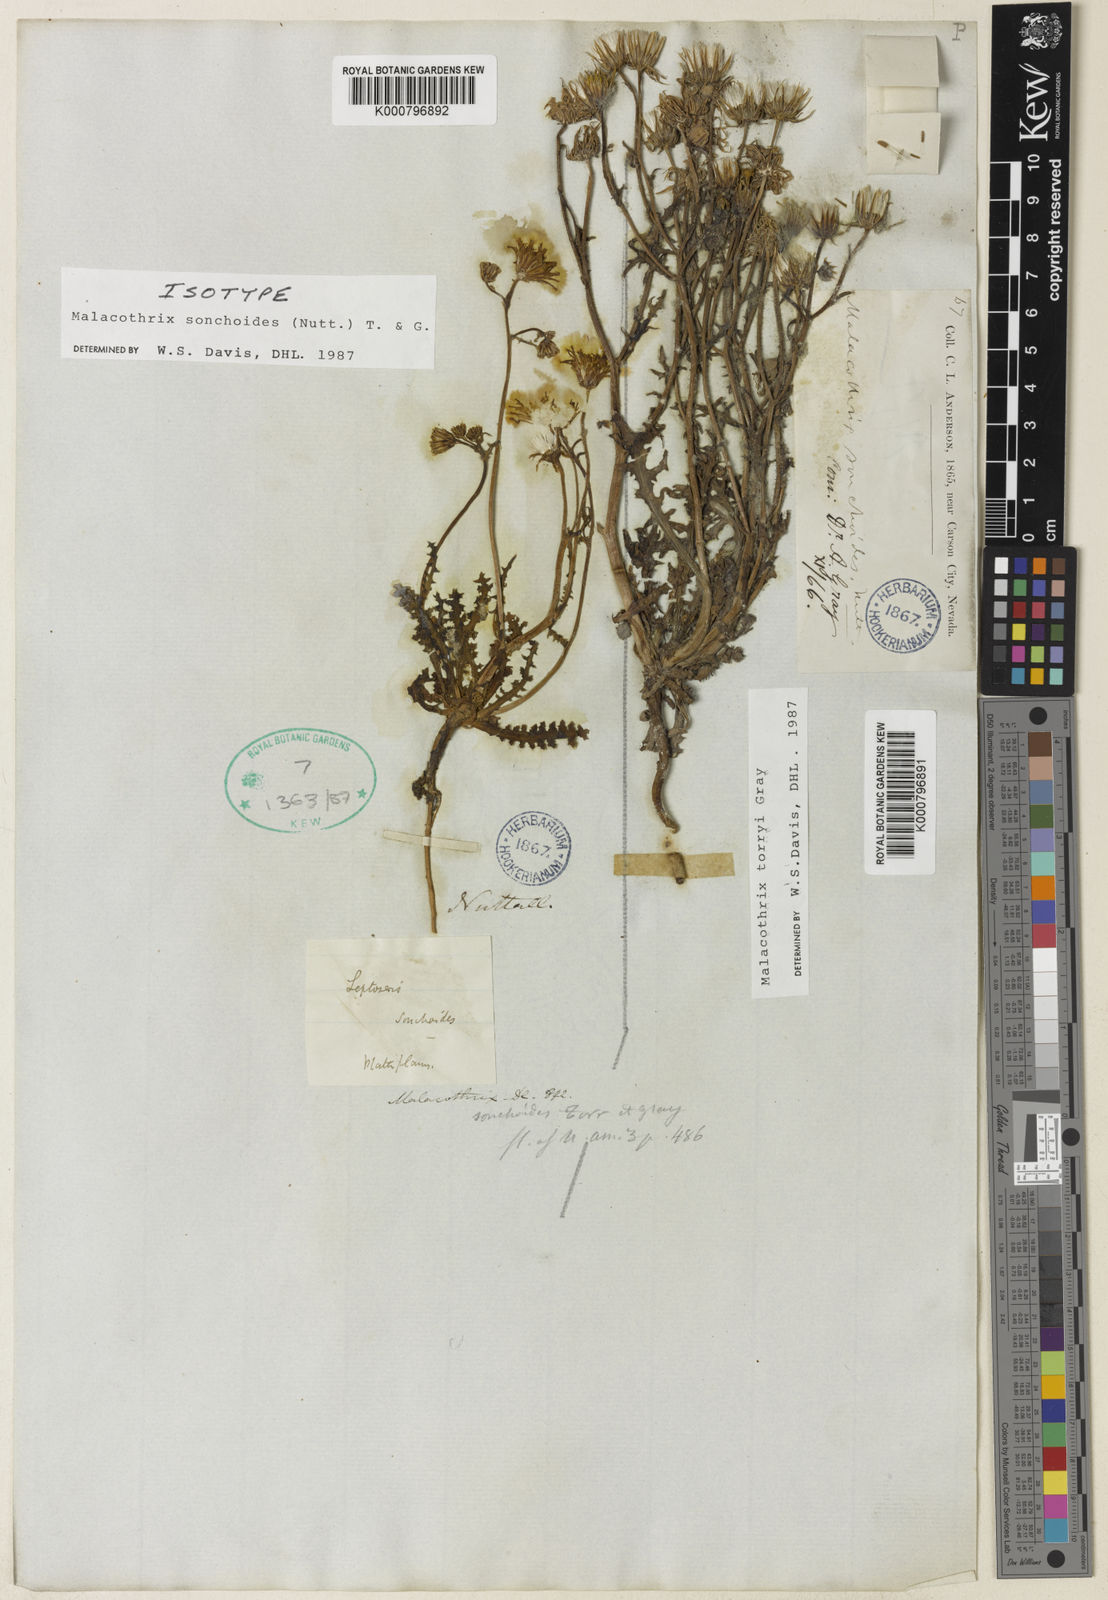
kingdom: Plantae
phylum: Tracheophyta
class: Magnoliopsida
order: Asterales
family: Asteraceae
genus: Malacothrix
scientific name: Malacothrix torreyi
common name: Torrey's desert-dandelion
